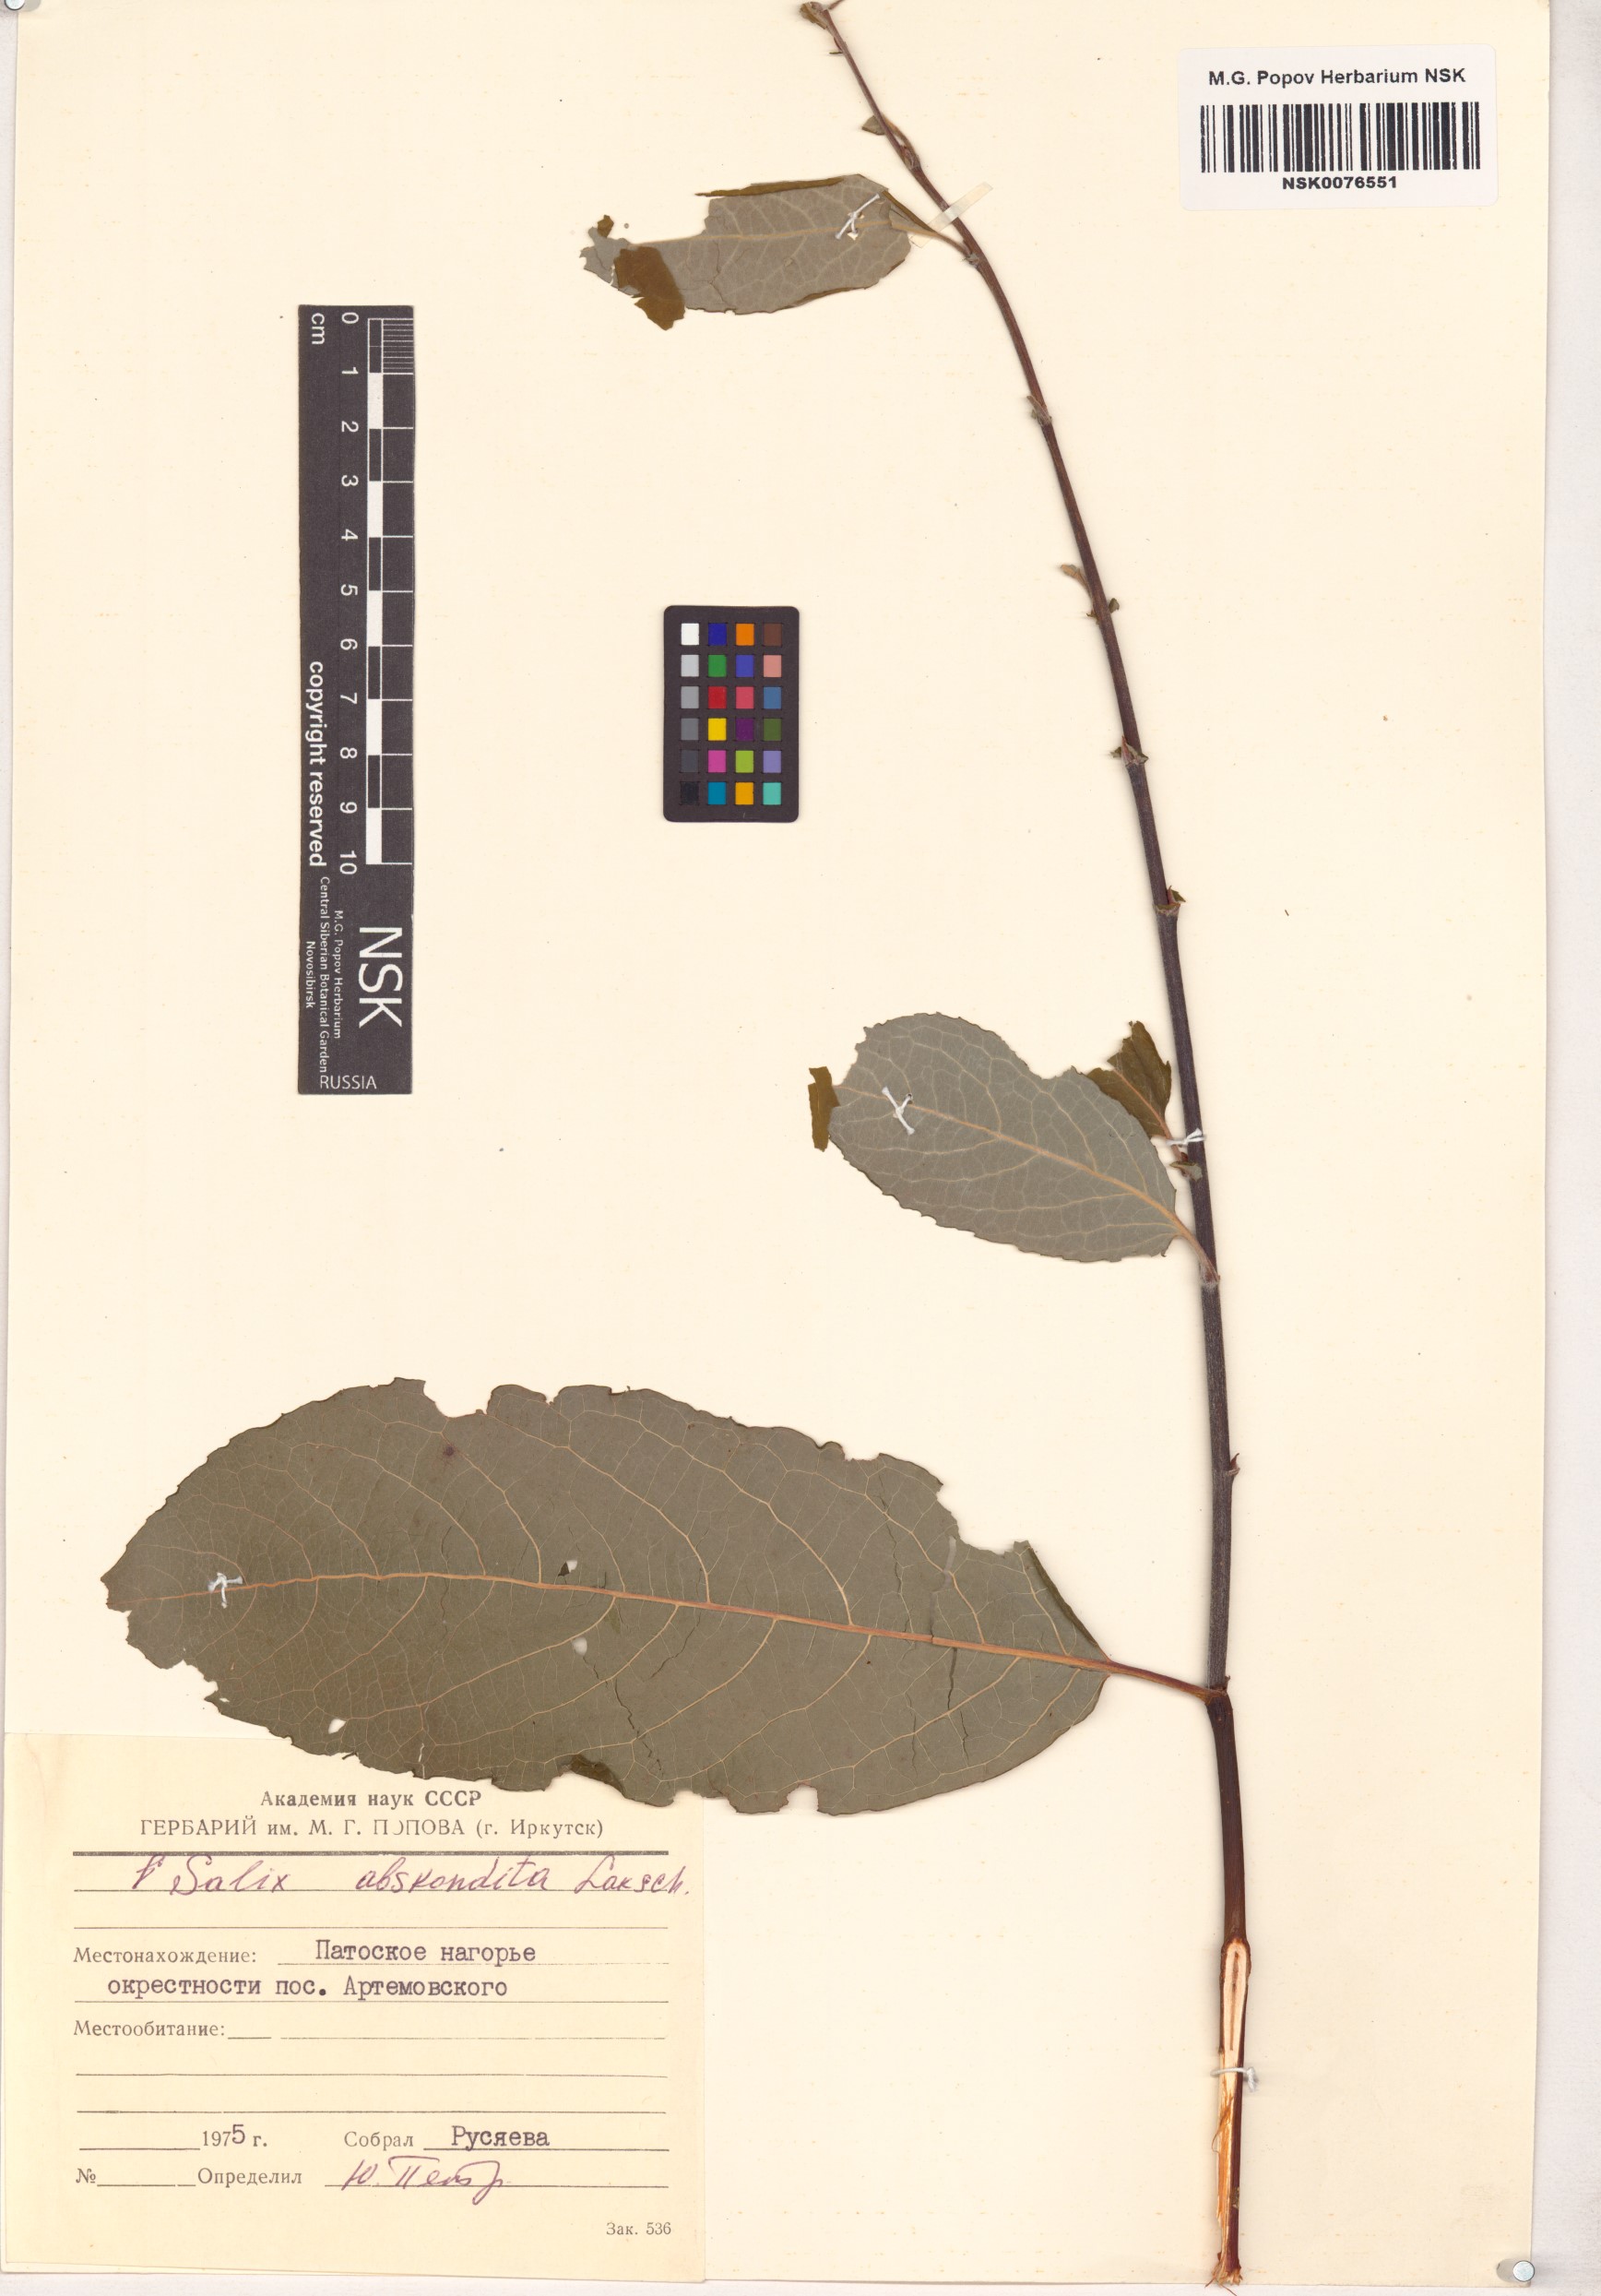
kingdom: Plantae
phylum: Tracheophyta
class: Magnoliopsida
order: Malpighiales
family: Salicaceae
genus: Salix
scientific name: Salix abscondita
